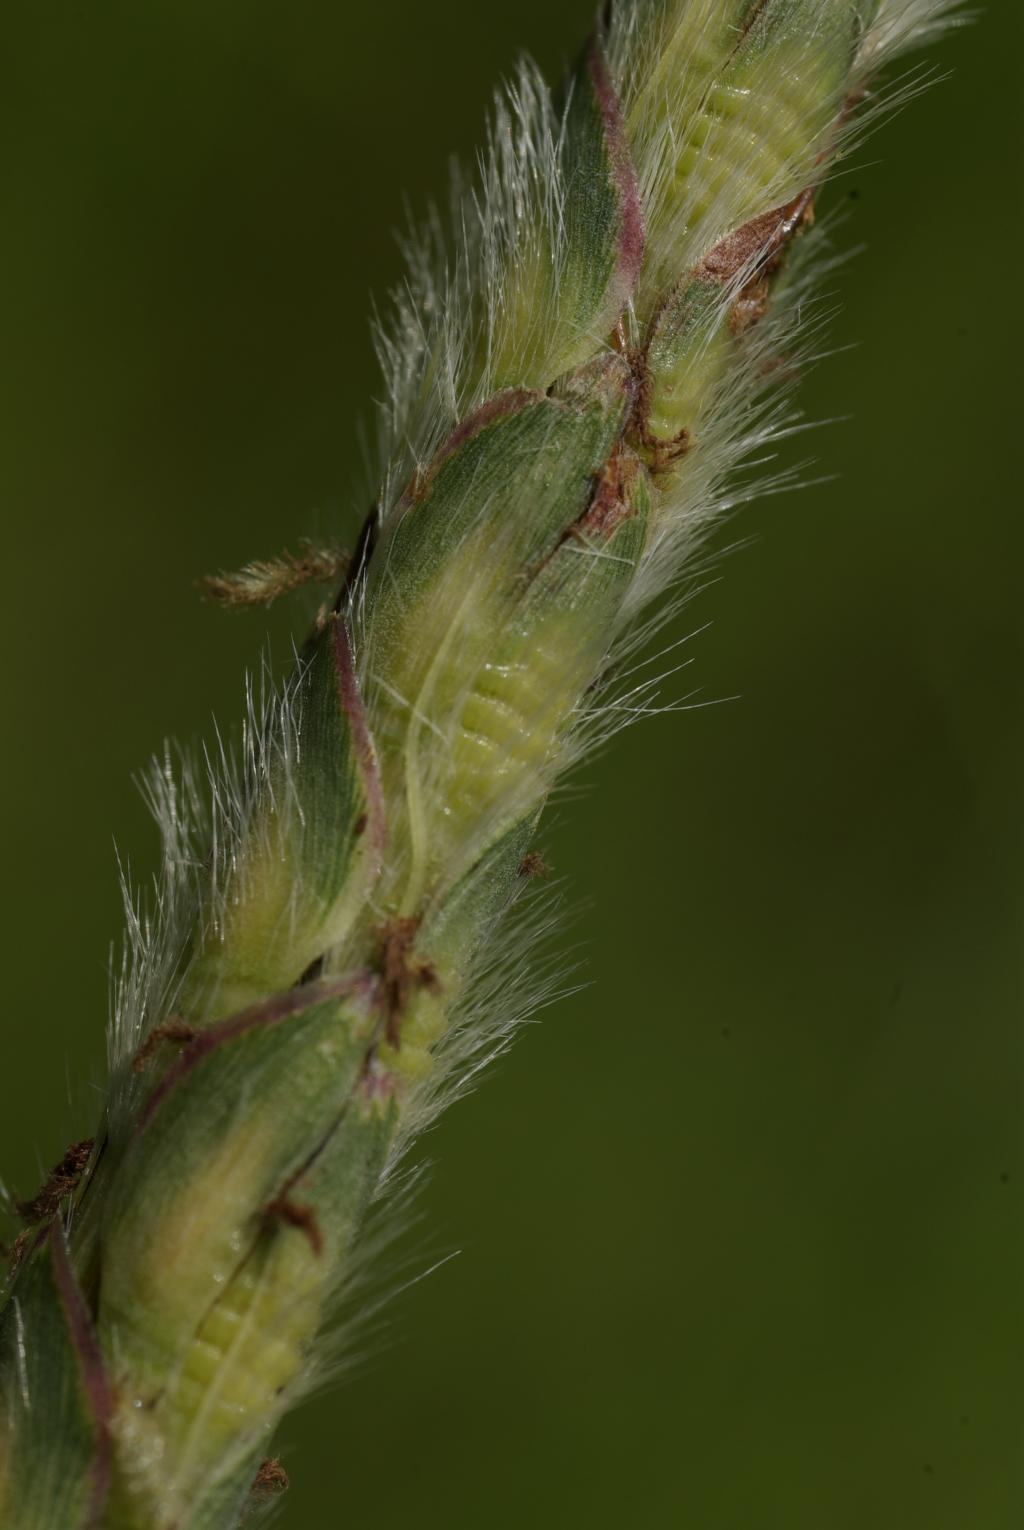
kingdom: Plantae
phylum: Tracheophyta
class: Liliopsida
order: Poales
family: Poaceae
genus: Ischaemum
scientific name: Ischaemum barbatum
